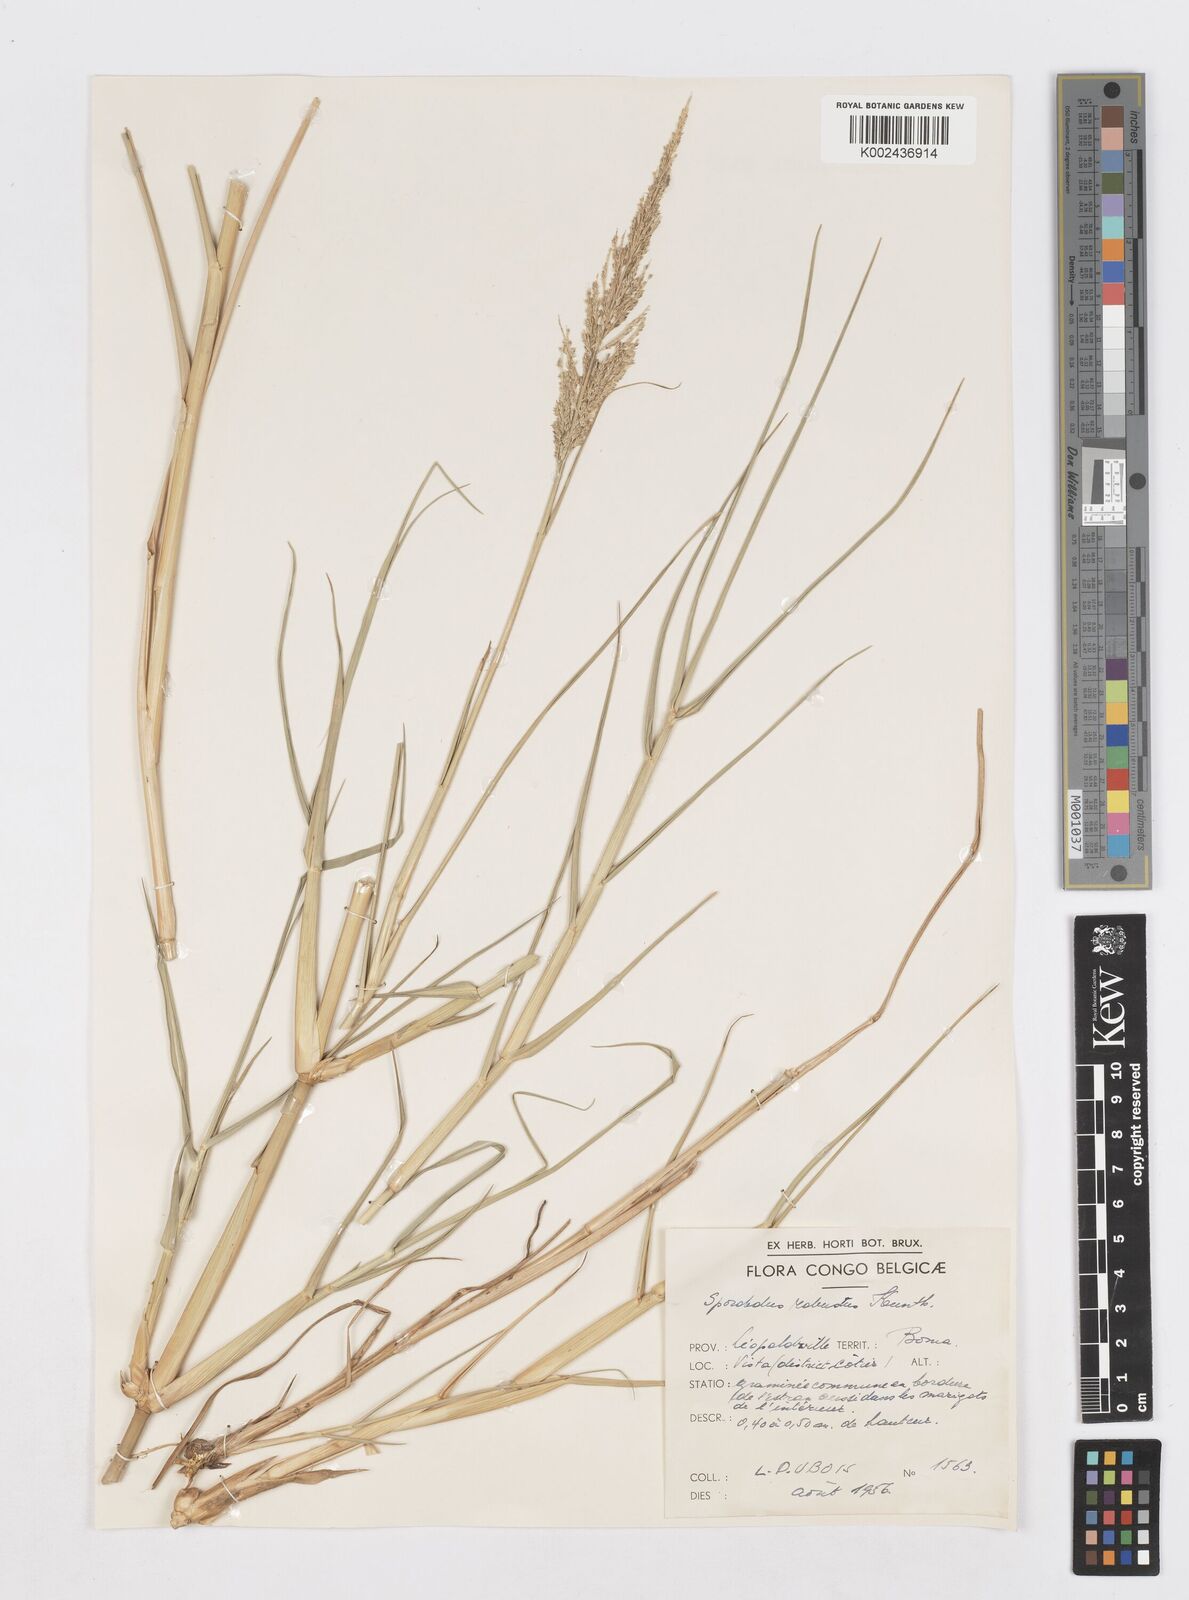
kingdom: Plantae
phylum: Tracheophyta
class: Liliopsida
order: Poales
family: Poaceae
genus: Sporobolus
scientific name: Sporobolus robustus
